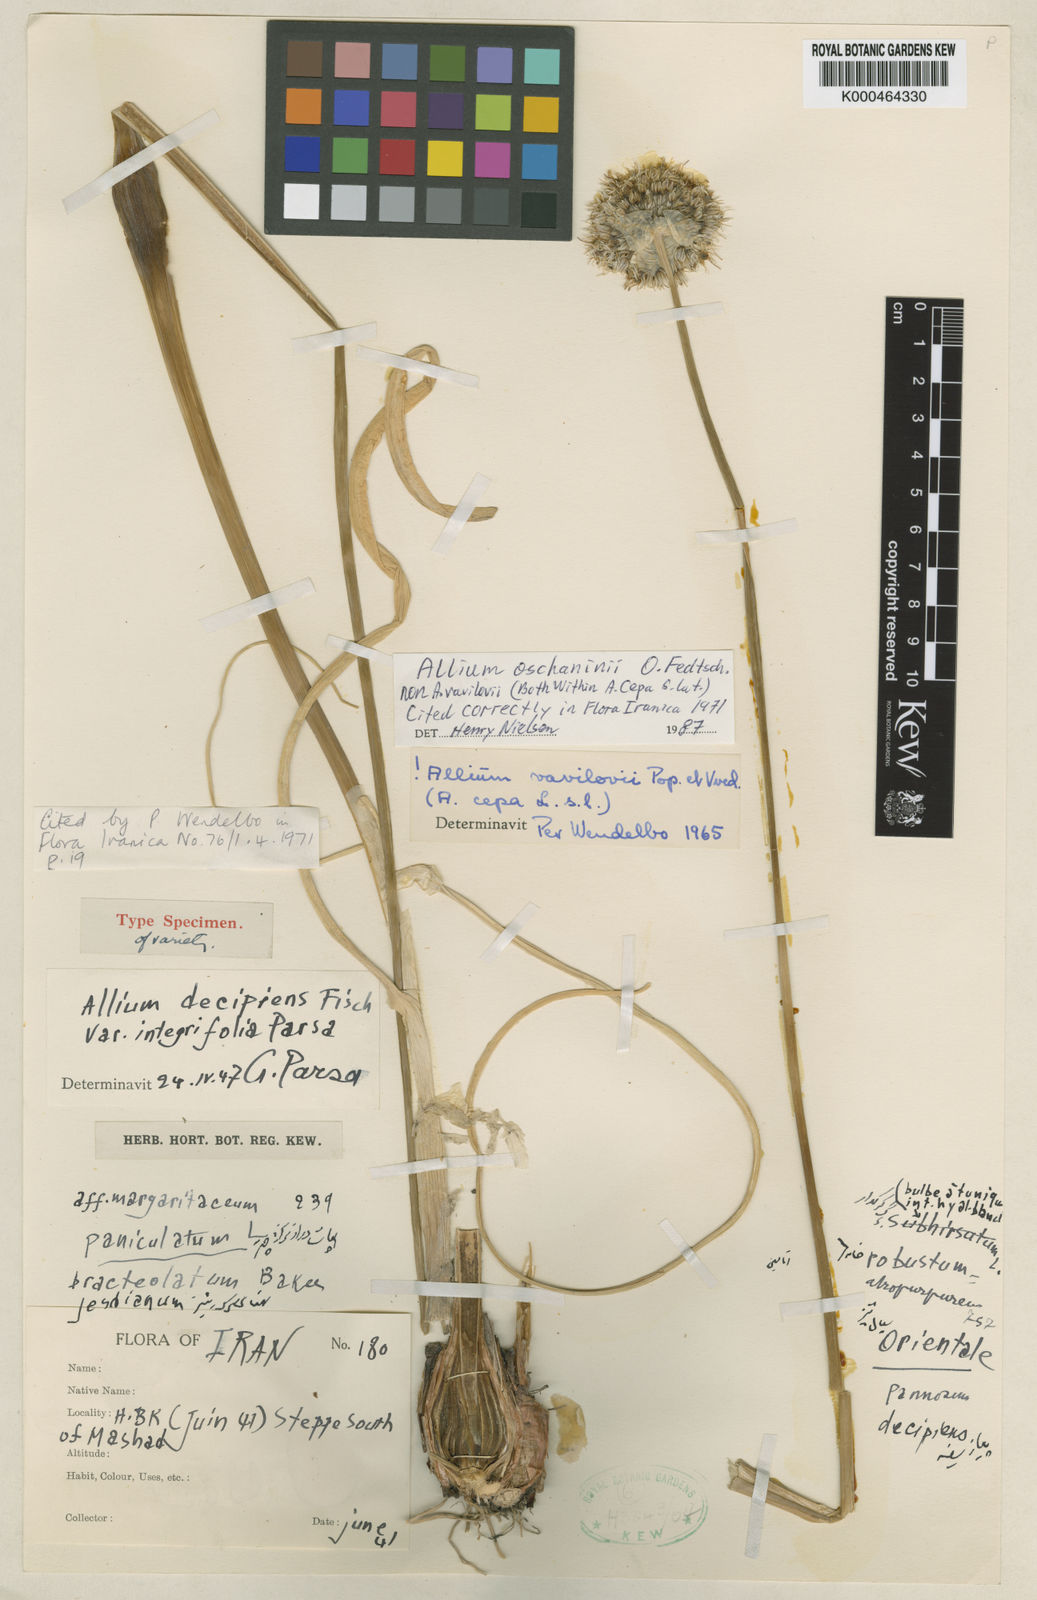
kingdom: Plantae
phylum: Tracheophyta
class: Liliopsida
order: Asparagales
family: Amaryllidaceae
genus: Allium
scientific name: Allium oschaninii
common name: French grey shallot
